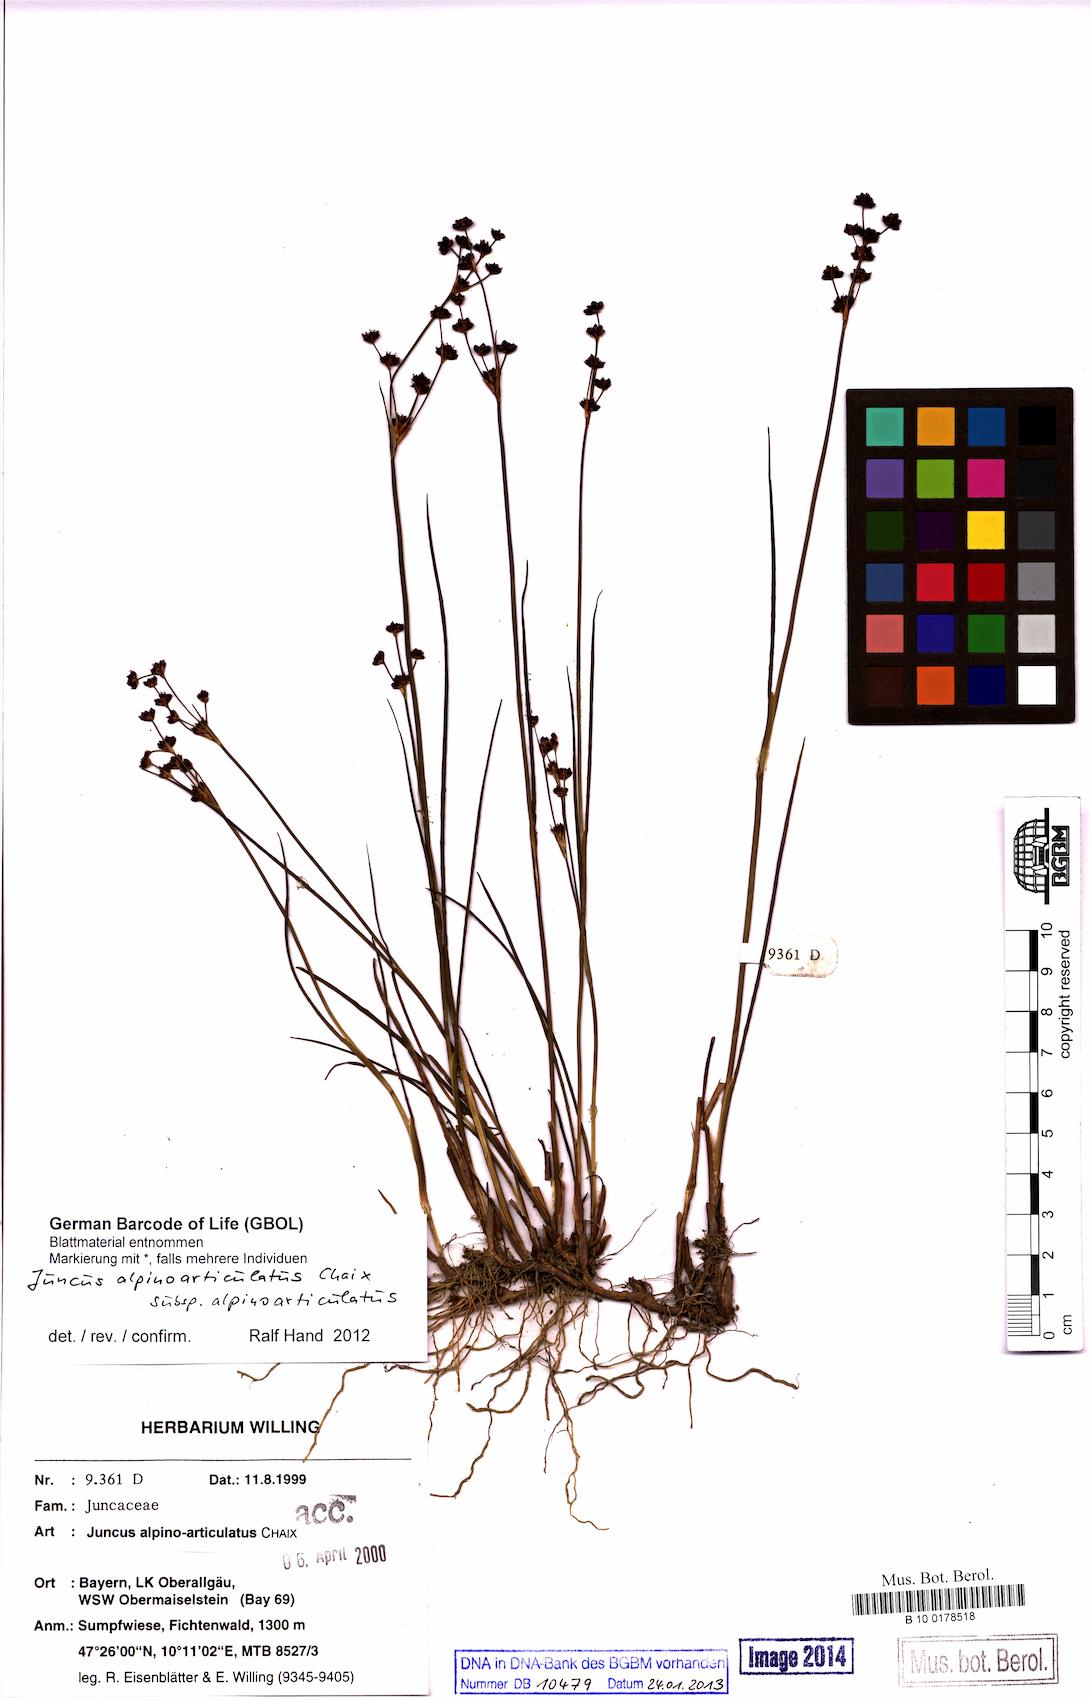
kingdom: Plantae
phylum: Tracheophyta
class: Liliopsida
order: Poales
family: Juncaceae
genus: Juncus
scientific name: Juncus alpinoarticulatus
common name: Alpine rush
